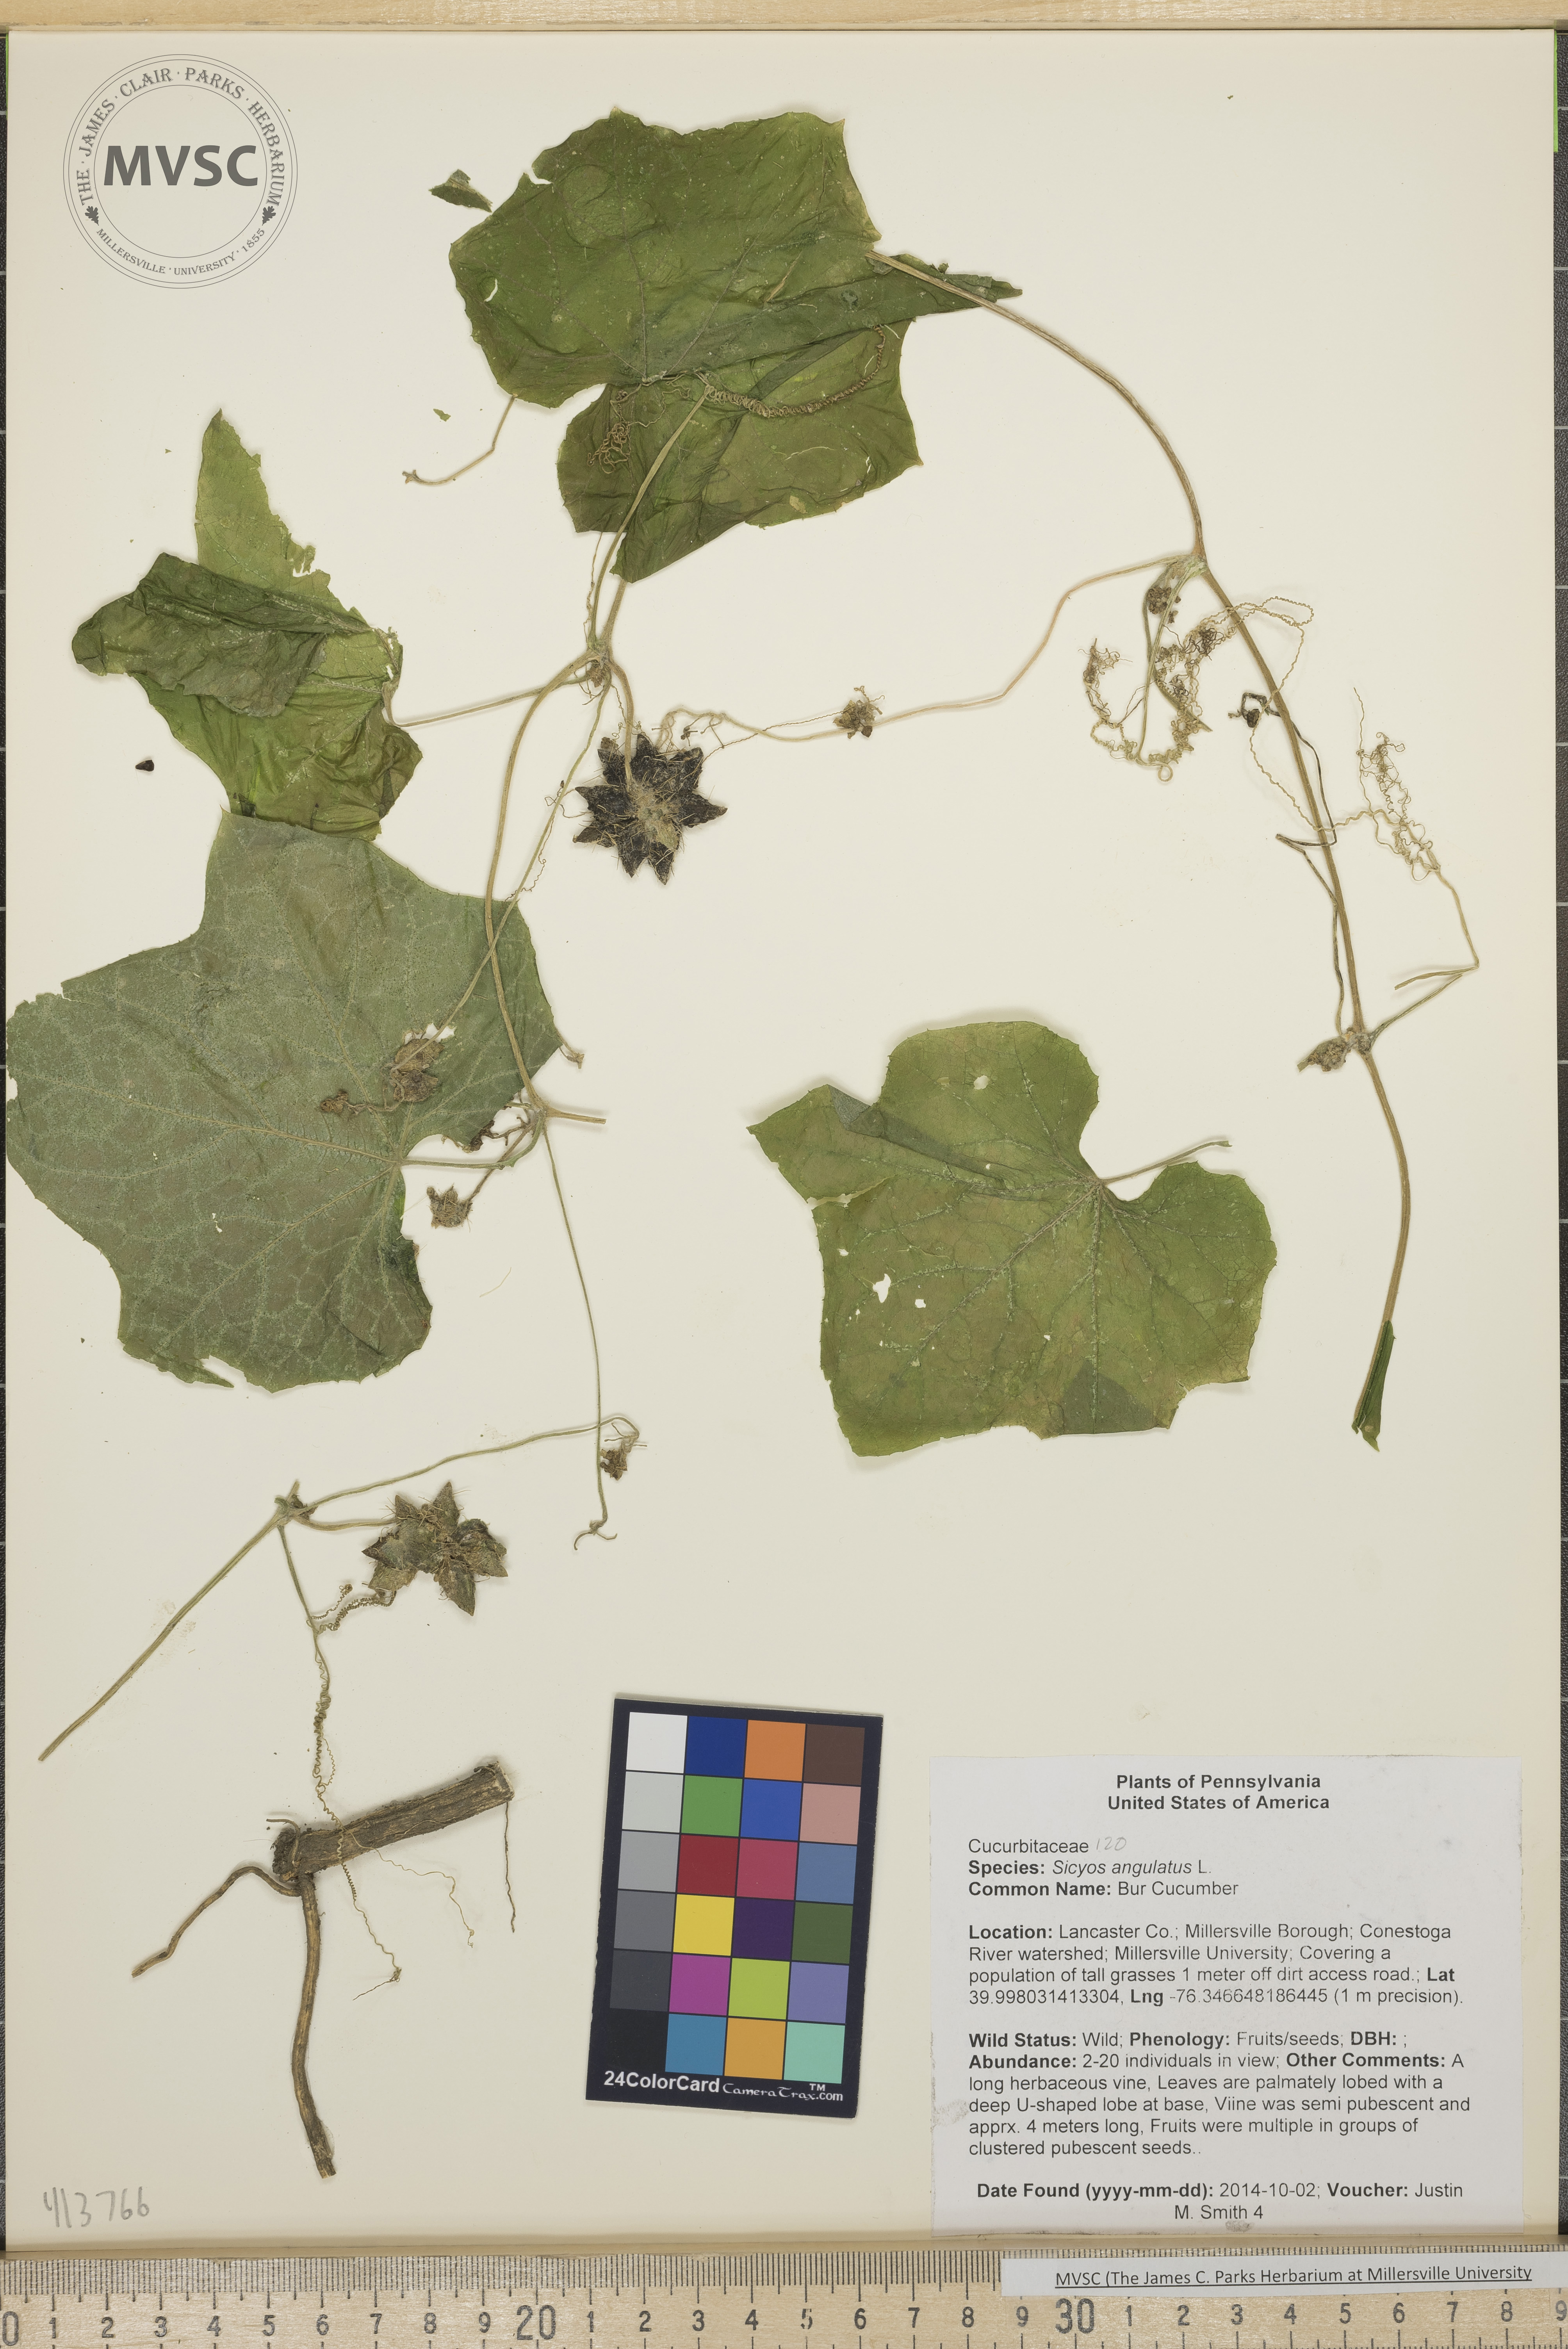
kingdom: Plantae
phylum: Tracheophyta
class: Magnoliopsida
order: Cucurbitales
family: Cucurbitaceae
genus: Sicyos
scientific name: Sicyos angulatus
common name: Bur Cucumber
